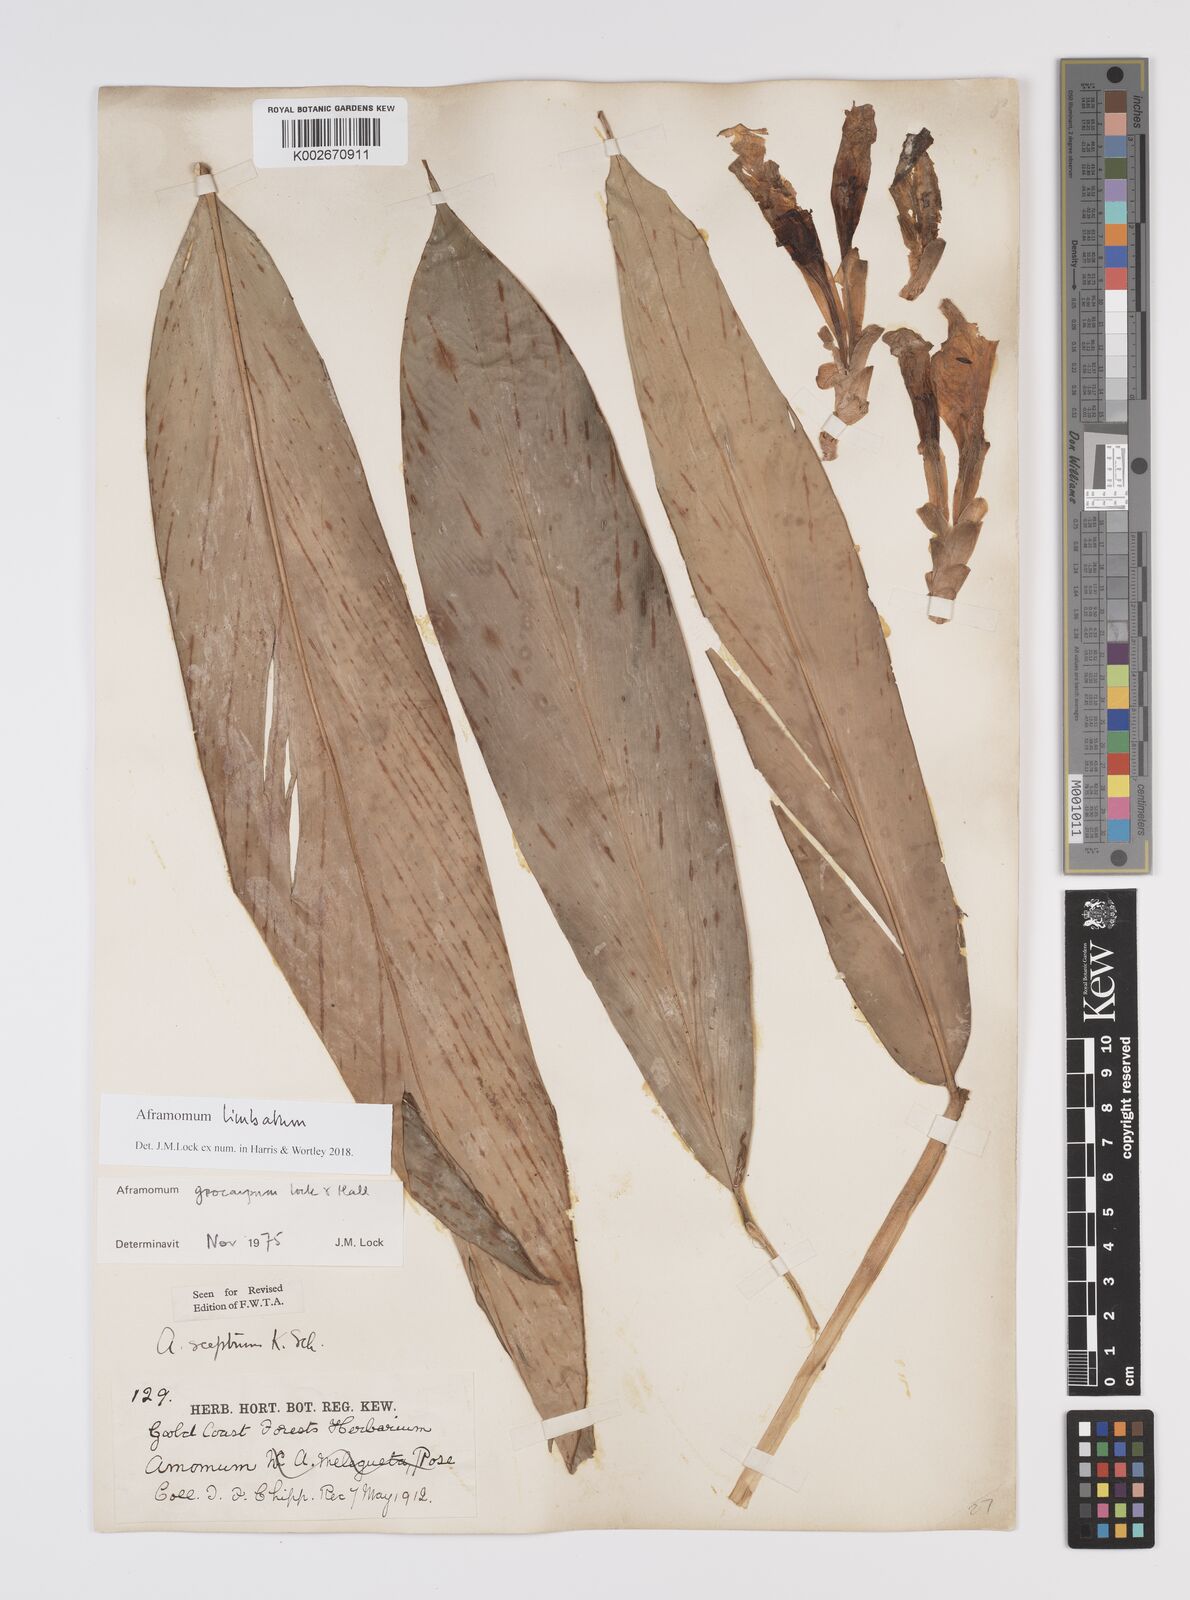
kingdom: Plantae
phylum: Tracheophyta
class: Liliopsida
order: Zingiberales
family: Zingiberaceae
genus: Aframomum
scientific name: Aframomum limbatum
